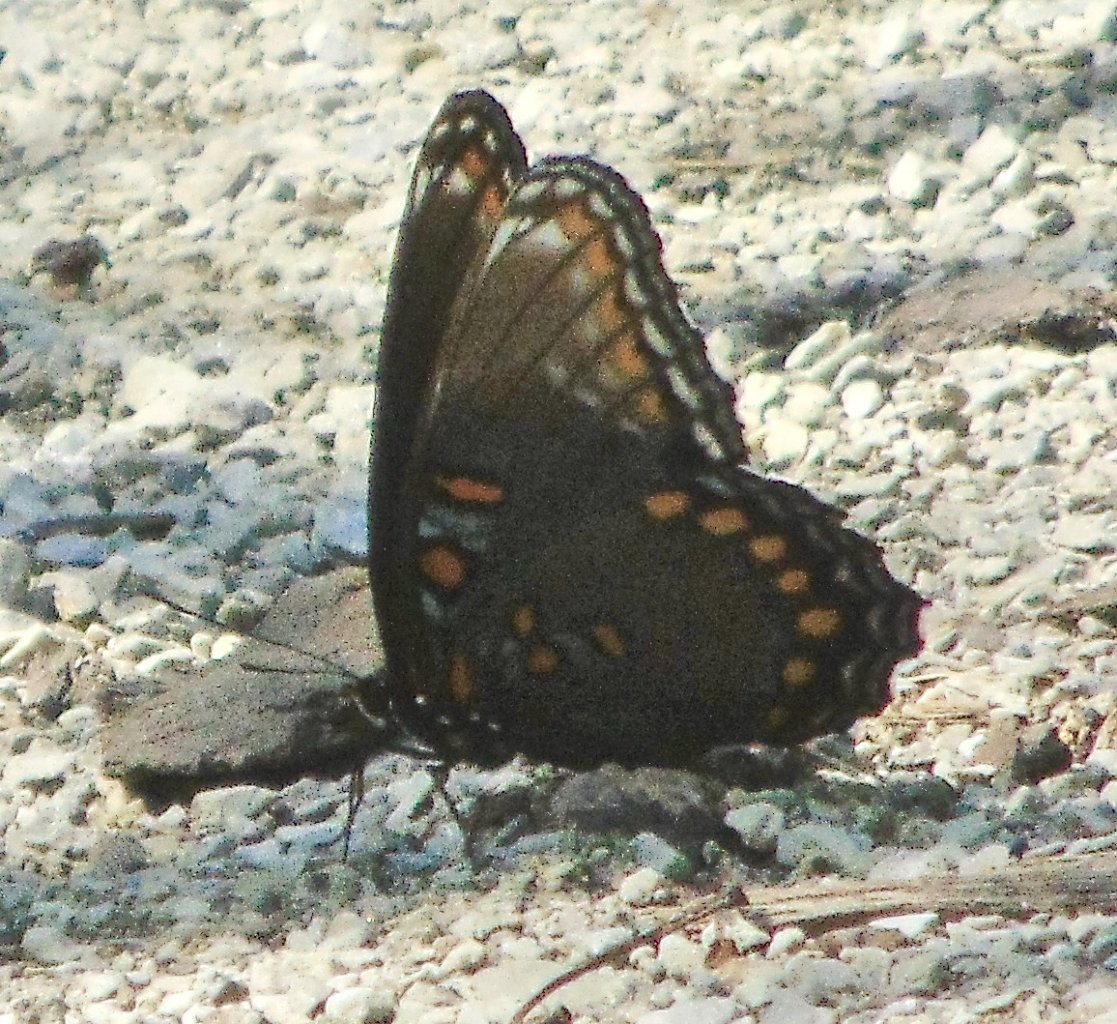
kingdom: Animalia
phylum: Arthropoda
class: Insecta
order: Lepidoptera
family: Nymphalidae
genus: Limenitis
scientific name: Limenitis astyanax
